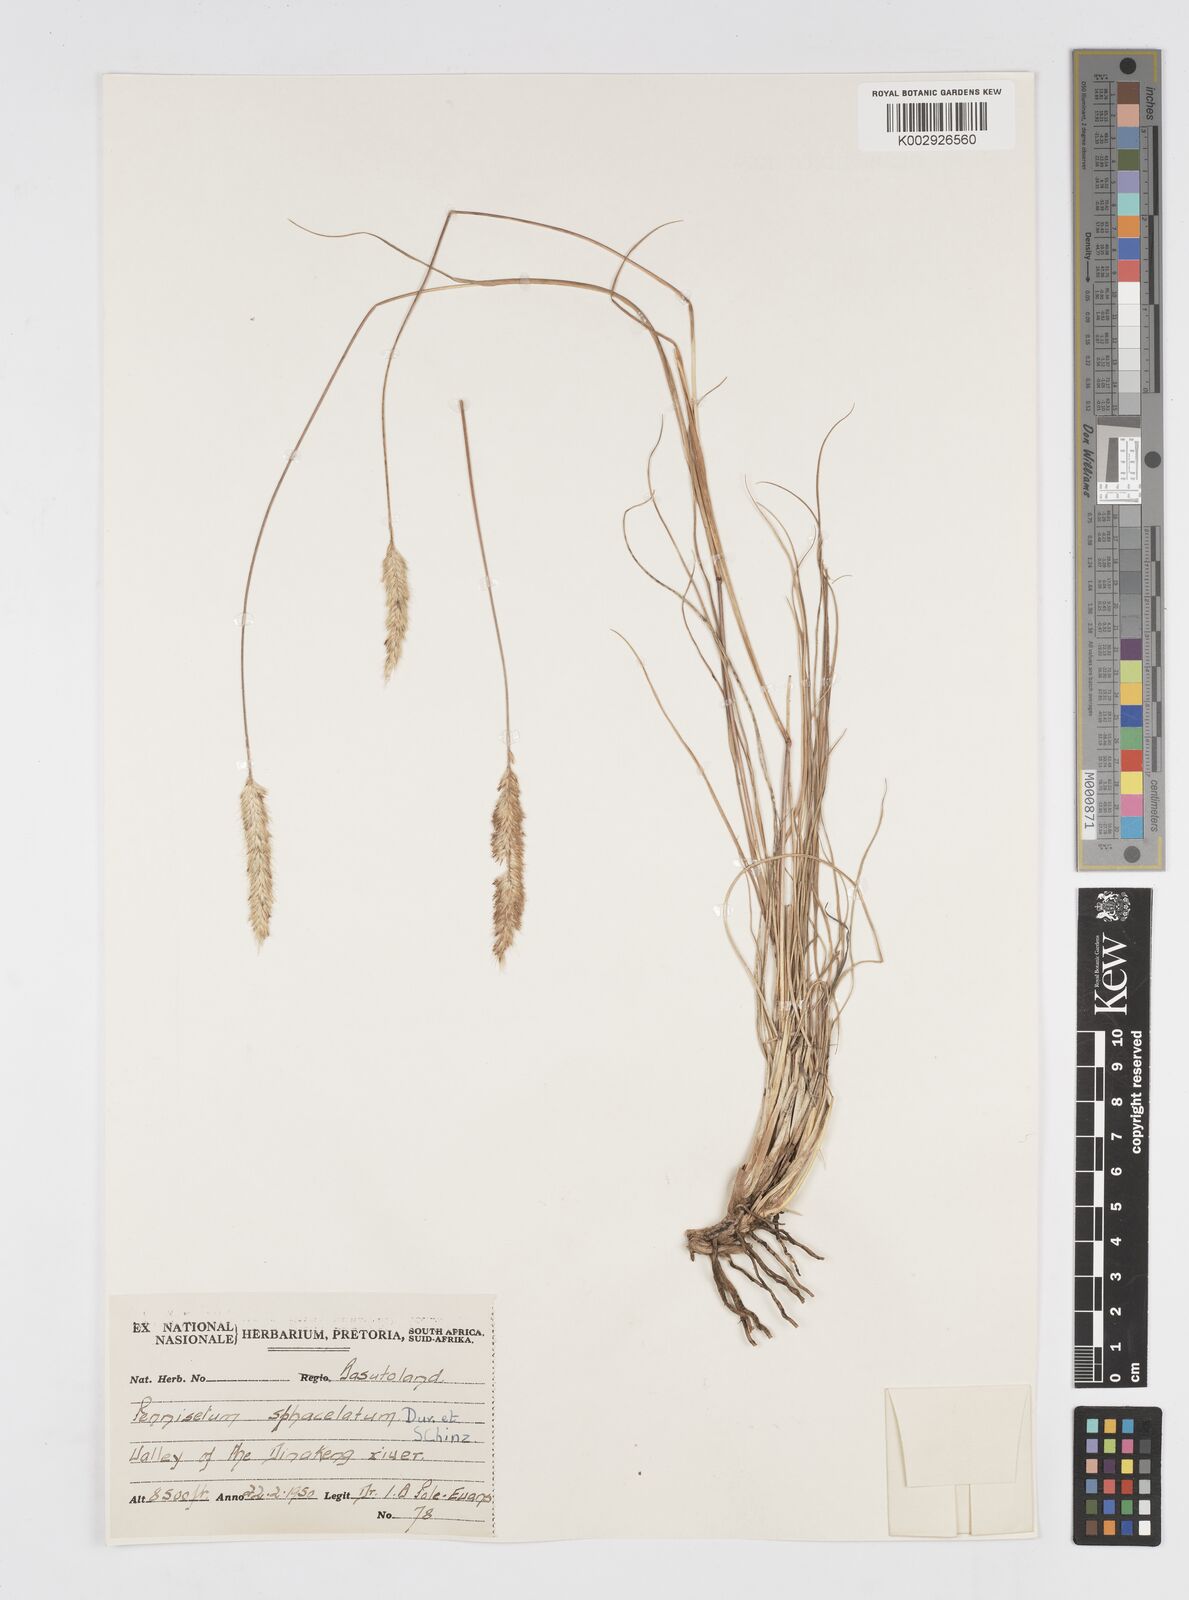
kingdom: Plantae
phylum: Tracheophyta
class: Liliopsida
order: Poales
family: Poaceae
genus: Cenchrus
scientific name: Cenchrus sphacelatus
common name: Bulgras
